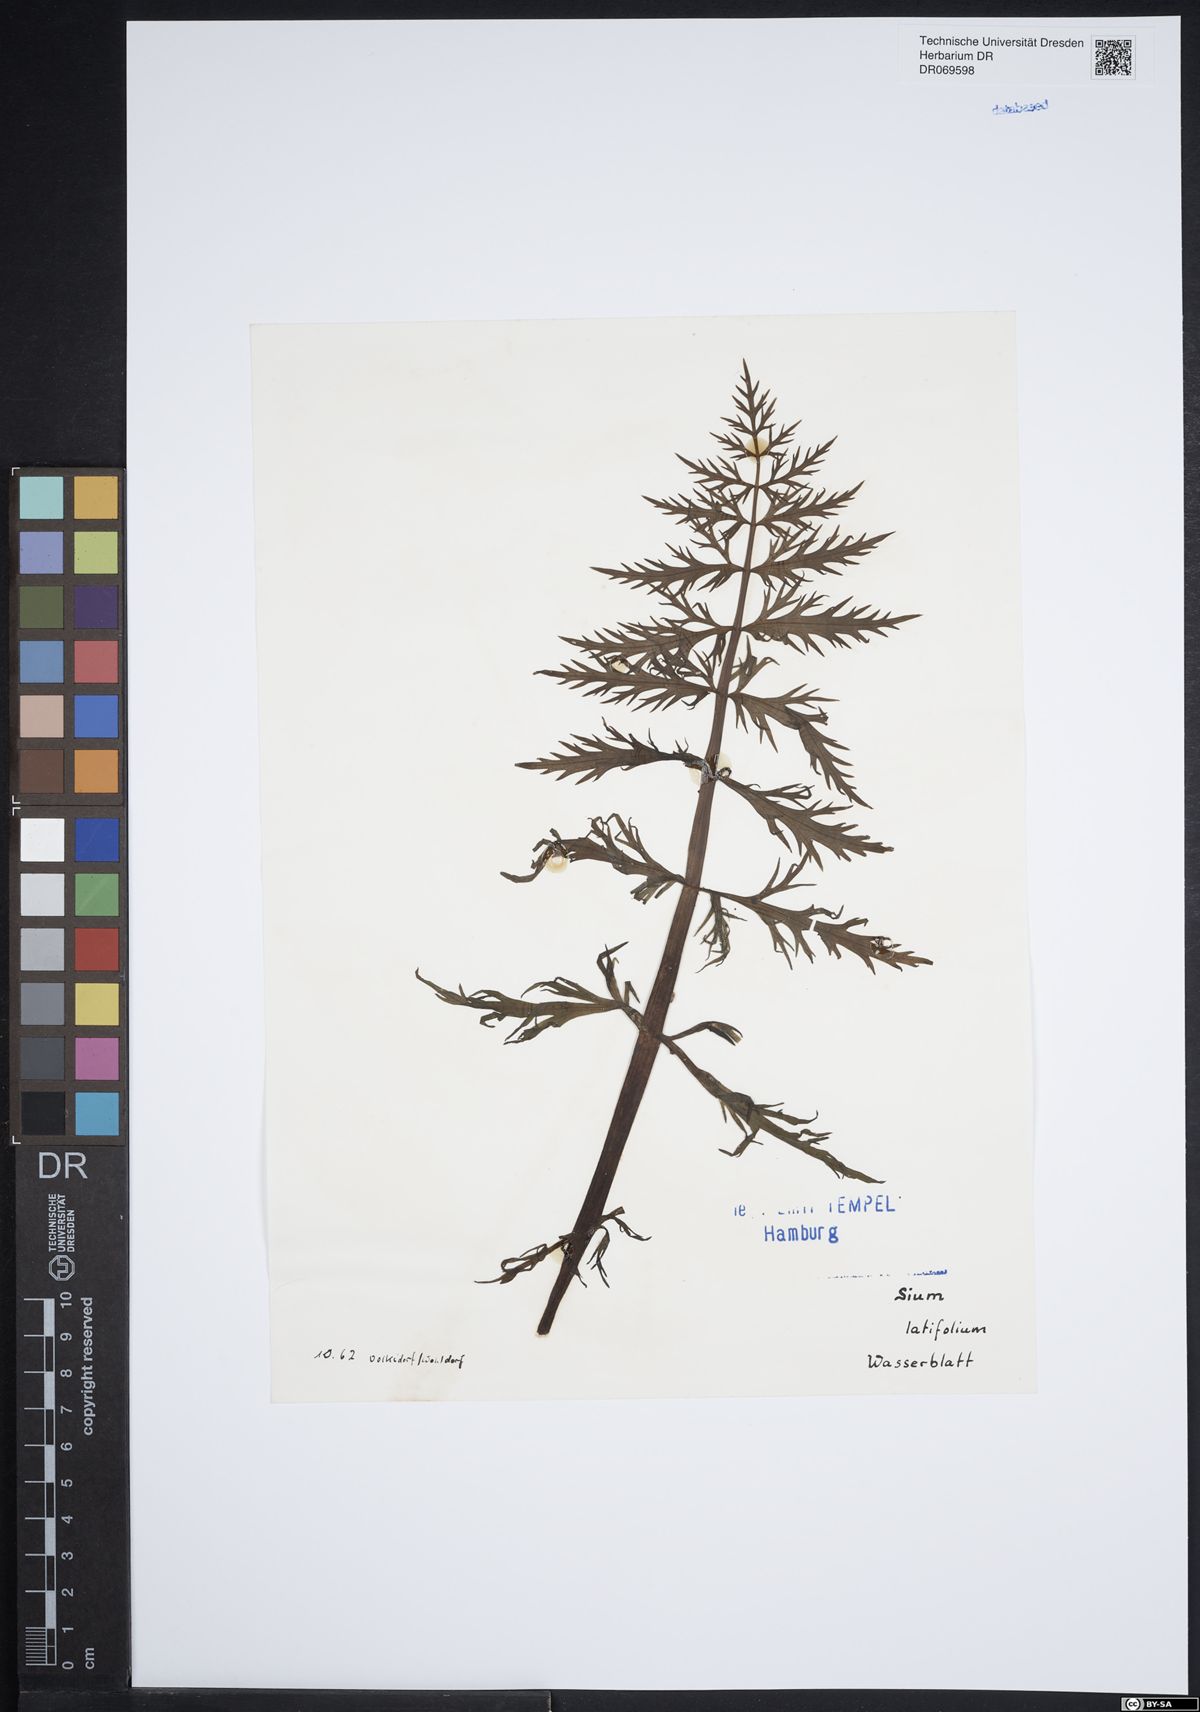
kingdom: Plantae
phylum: Tracheophyta
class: Magnoliopsida
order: Apiales
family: Apiaceae
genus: Sium
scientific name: Sium latifolium
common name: Greater water-parsnip
